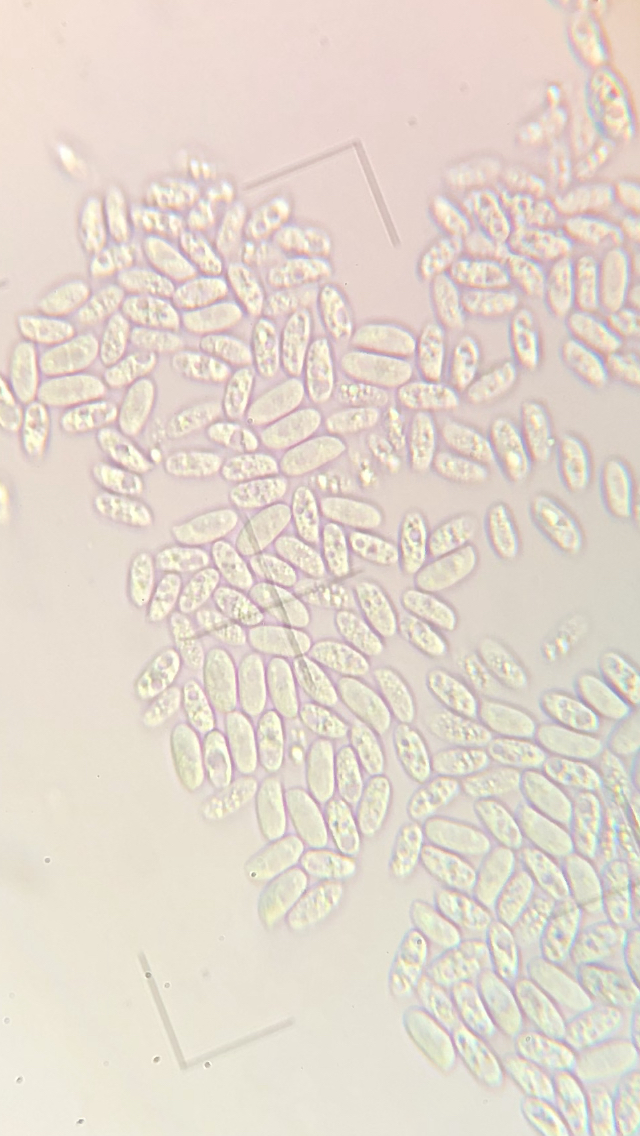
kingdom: Fungi
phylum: Basidiomycota
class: Agaricomycetes
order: Agaricales
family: Physalacriaceae
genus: Flammulina
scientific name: Flammulina velutipes
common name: gul fløjlsfod
